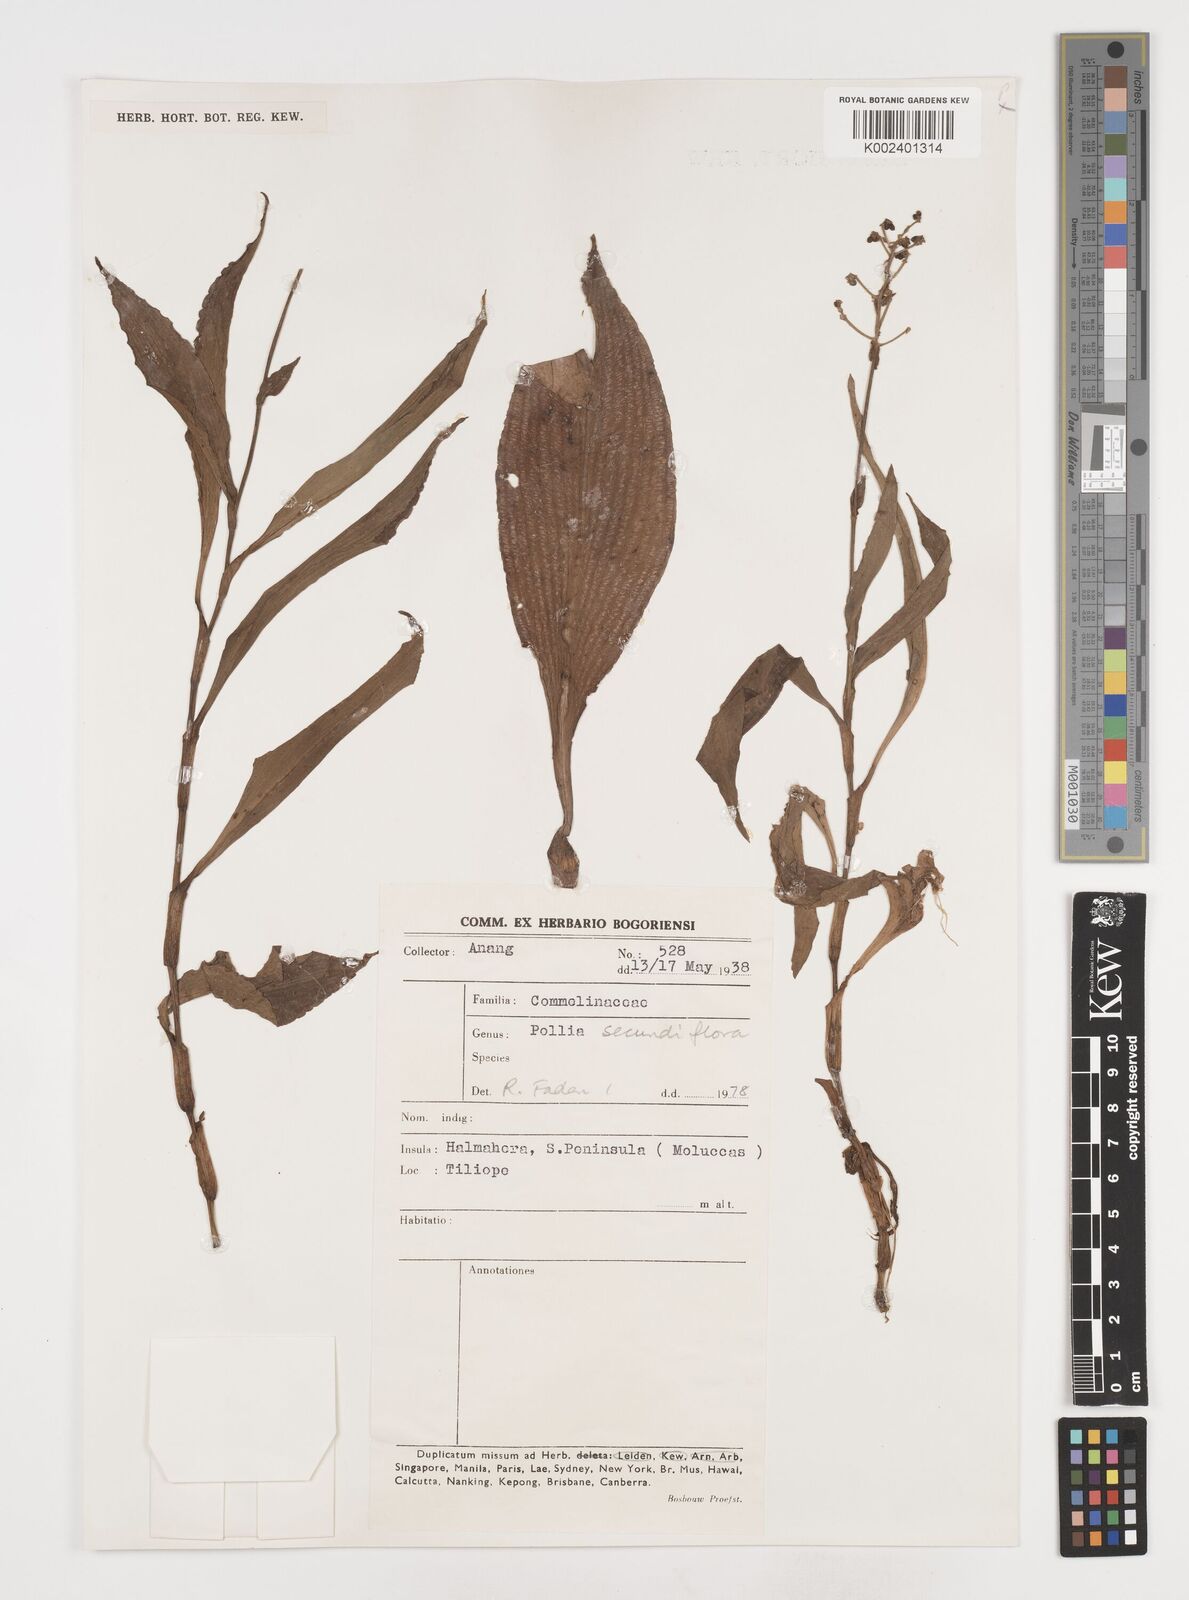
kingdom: Plantae
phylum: Tracheophyta
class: Liliopsida
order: Commelinales
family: Commelinaceae
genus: Pollia
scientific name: Pollia secundiflora
